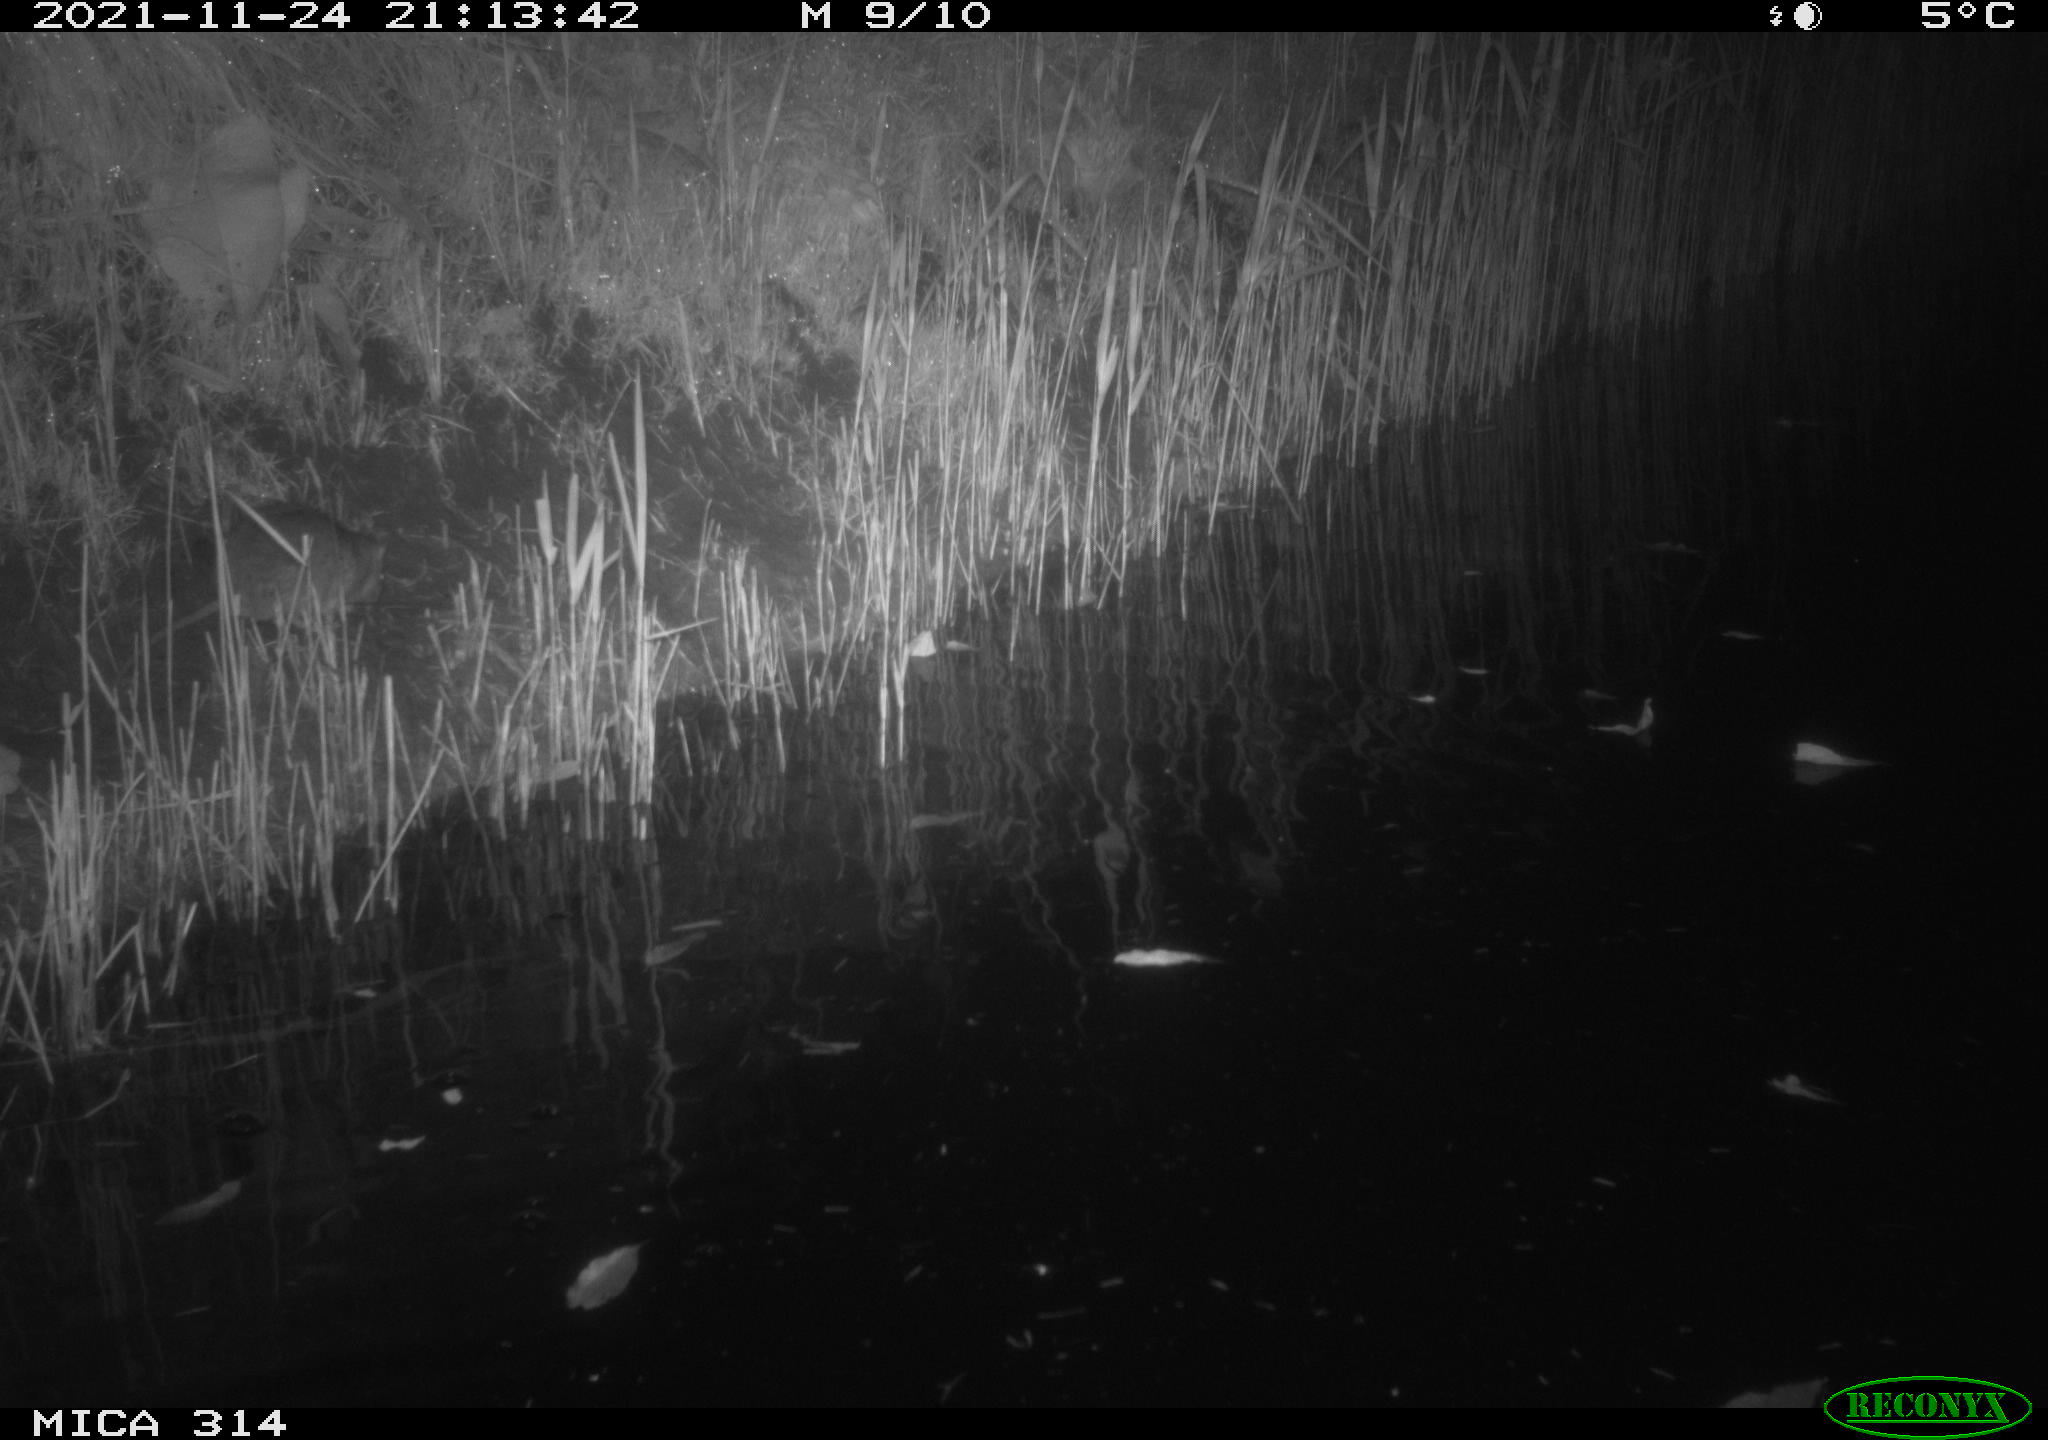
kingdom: Animalia
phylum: Chordata
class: Mammalia
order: Rodentia
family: Muridae
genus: Rattus
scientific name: Rattus norvegicus
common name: Brown rat
